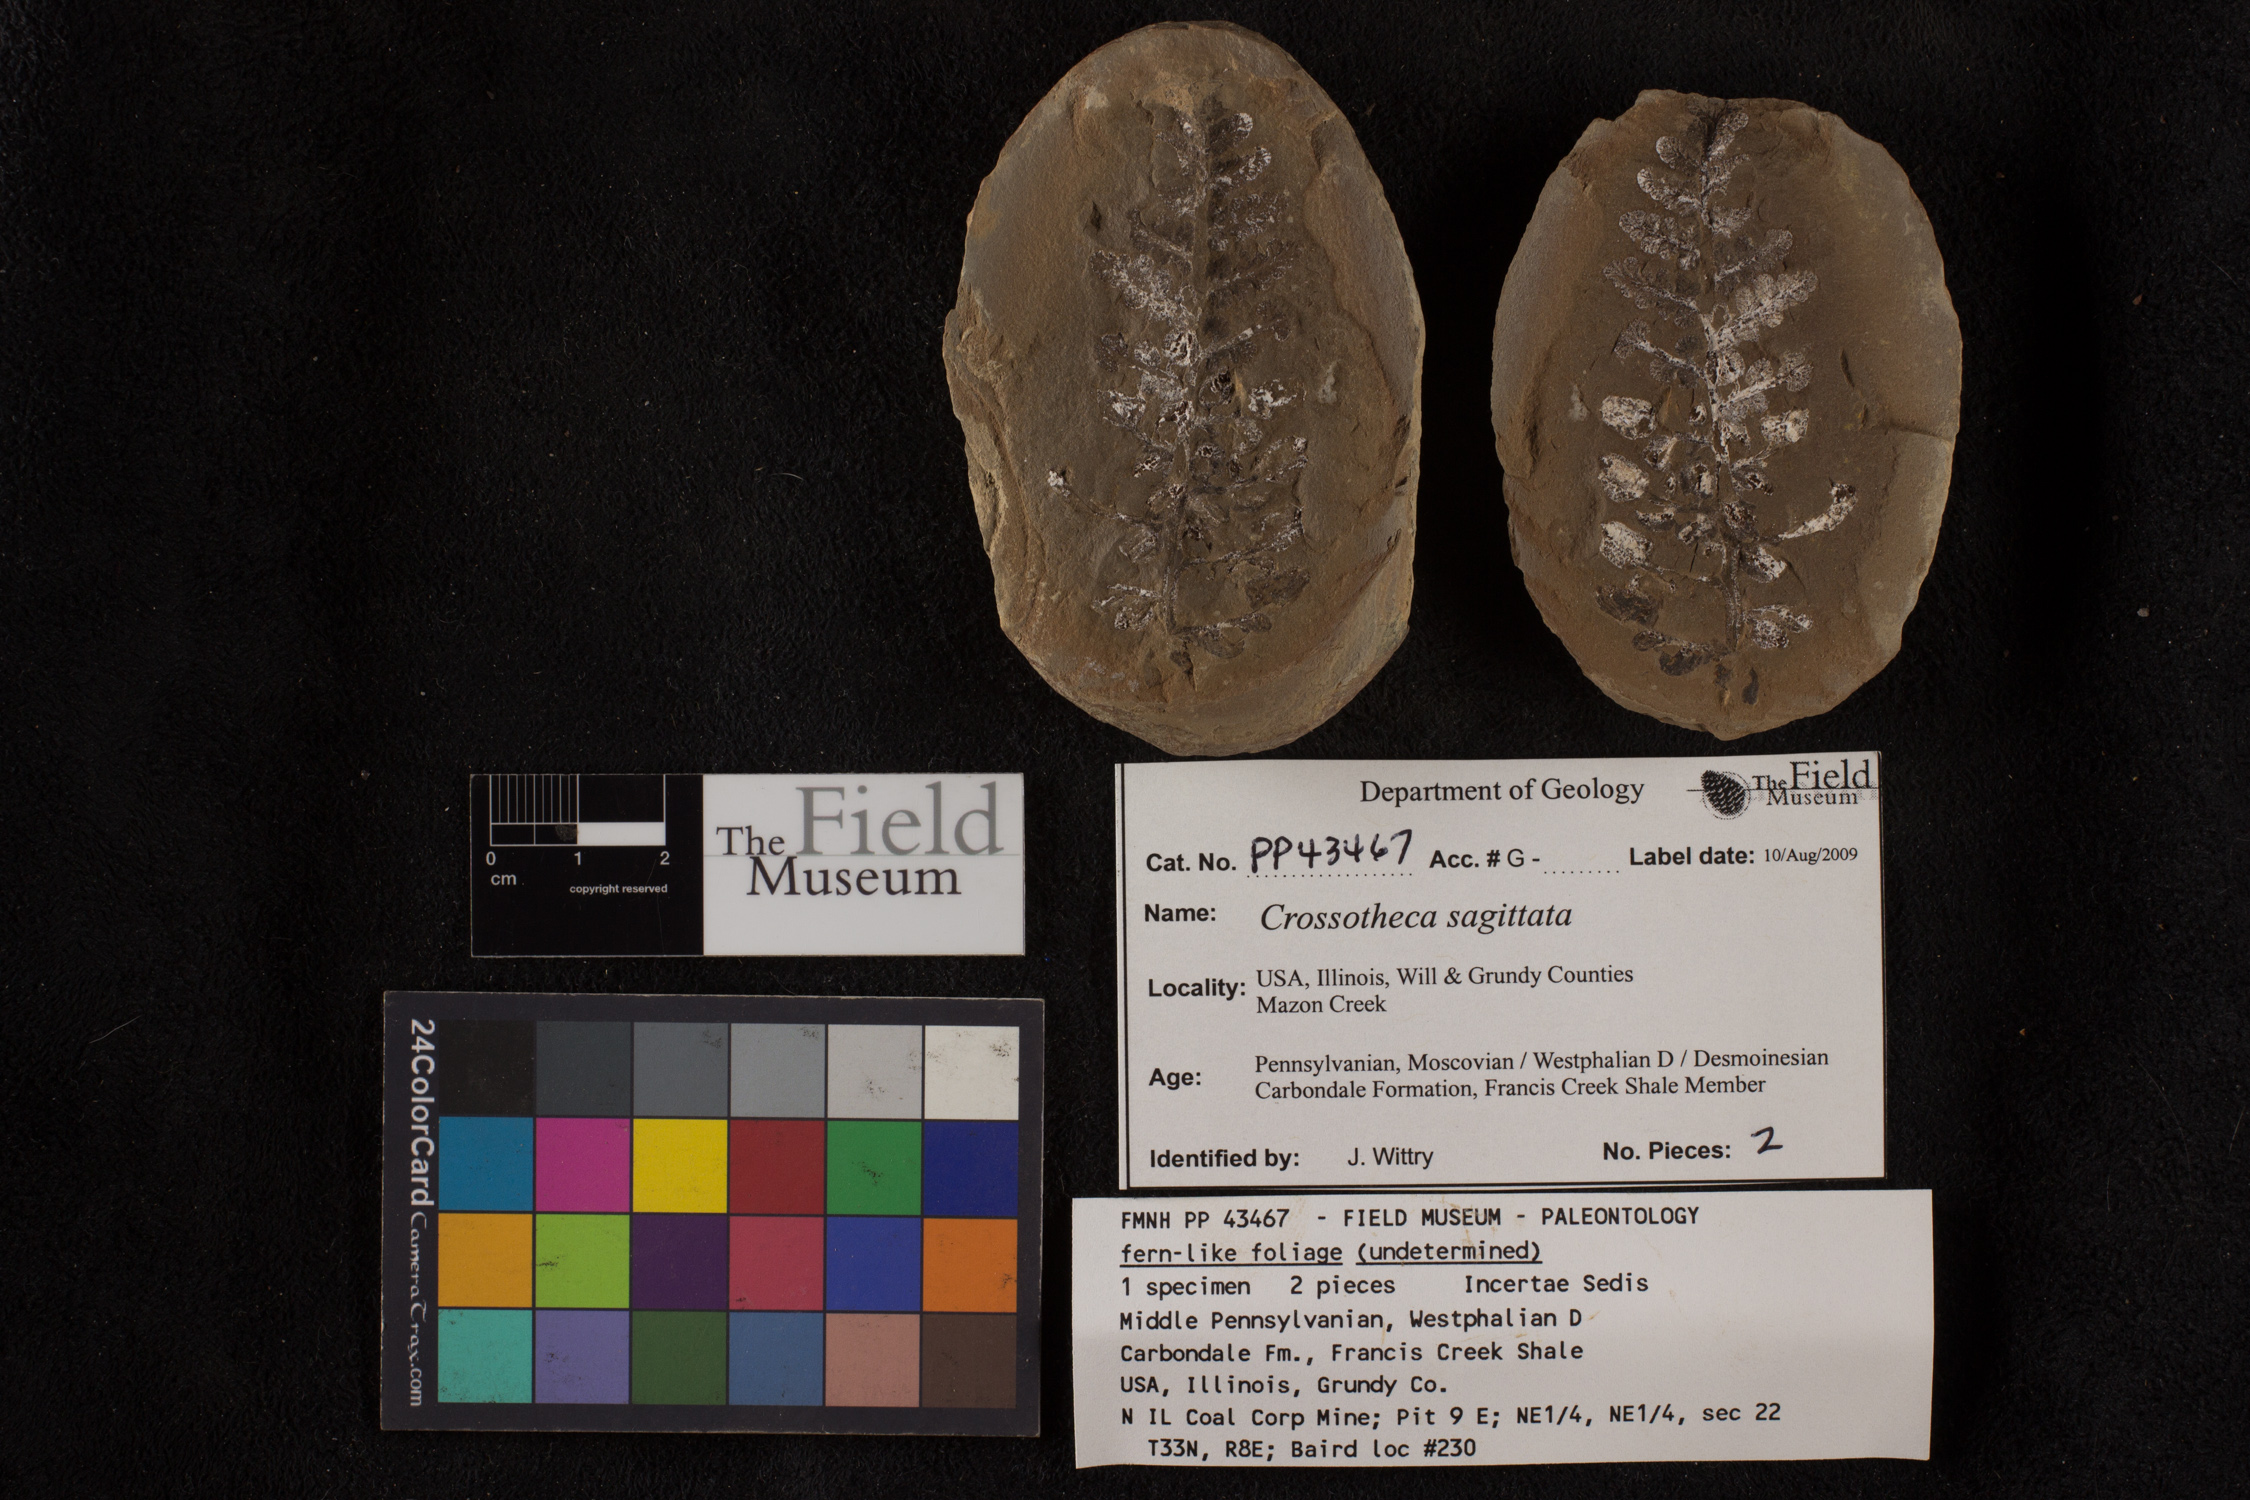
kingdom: Plantae
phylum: Tracheophyta
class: Polypodiopsida
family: Stauropteridaceae
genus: Crossotheca
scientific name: Crossotheca
